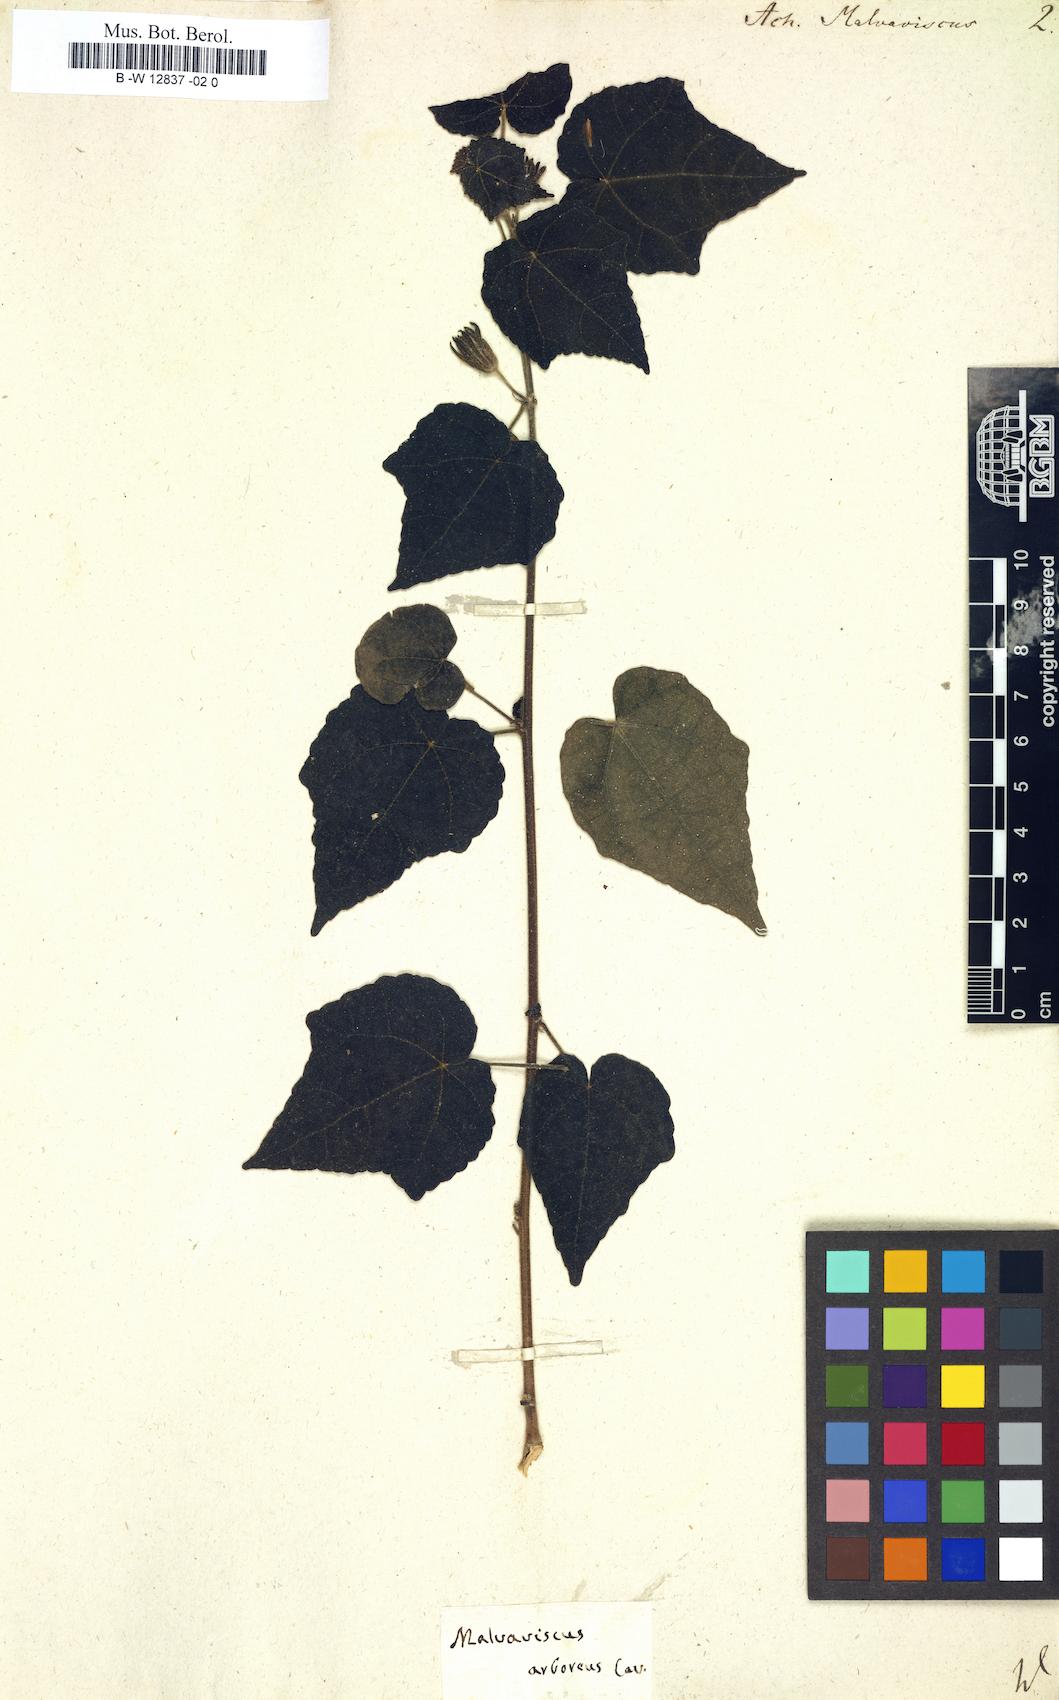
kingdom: Plantae
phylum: Tracheophyta
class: Magnoliopsida
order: Malvales
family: Malvaceae
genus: Malvaviscus
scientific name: Malvaviscus arboreus
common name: Wax mallow
